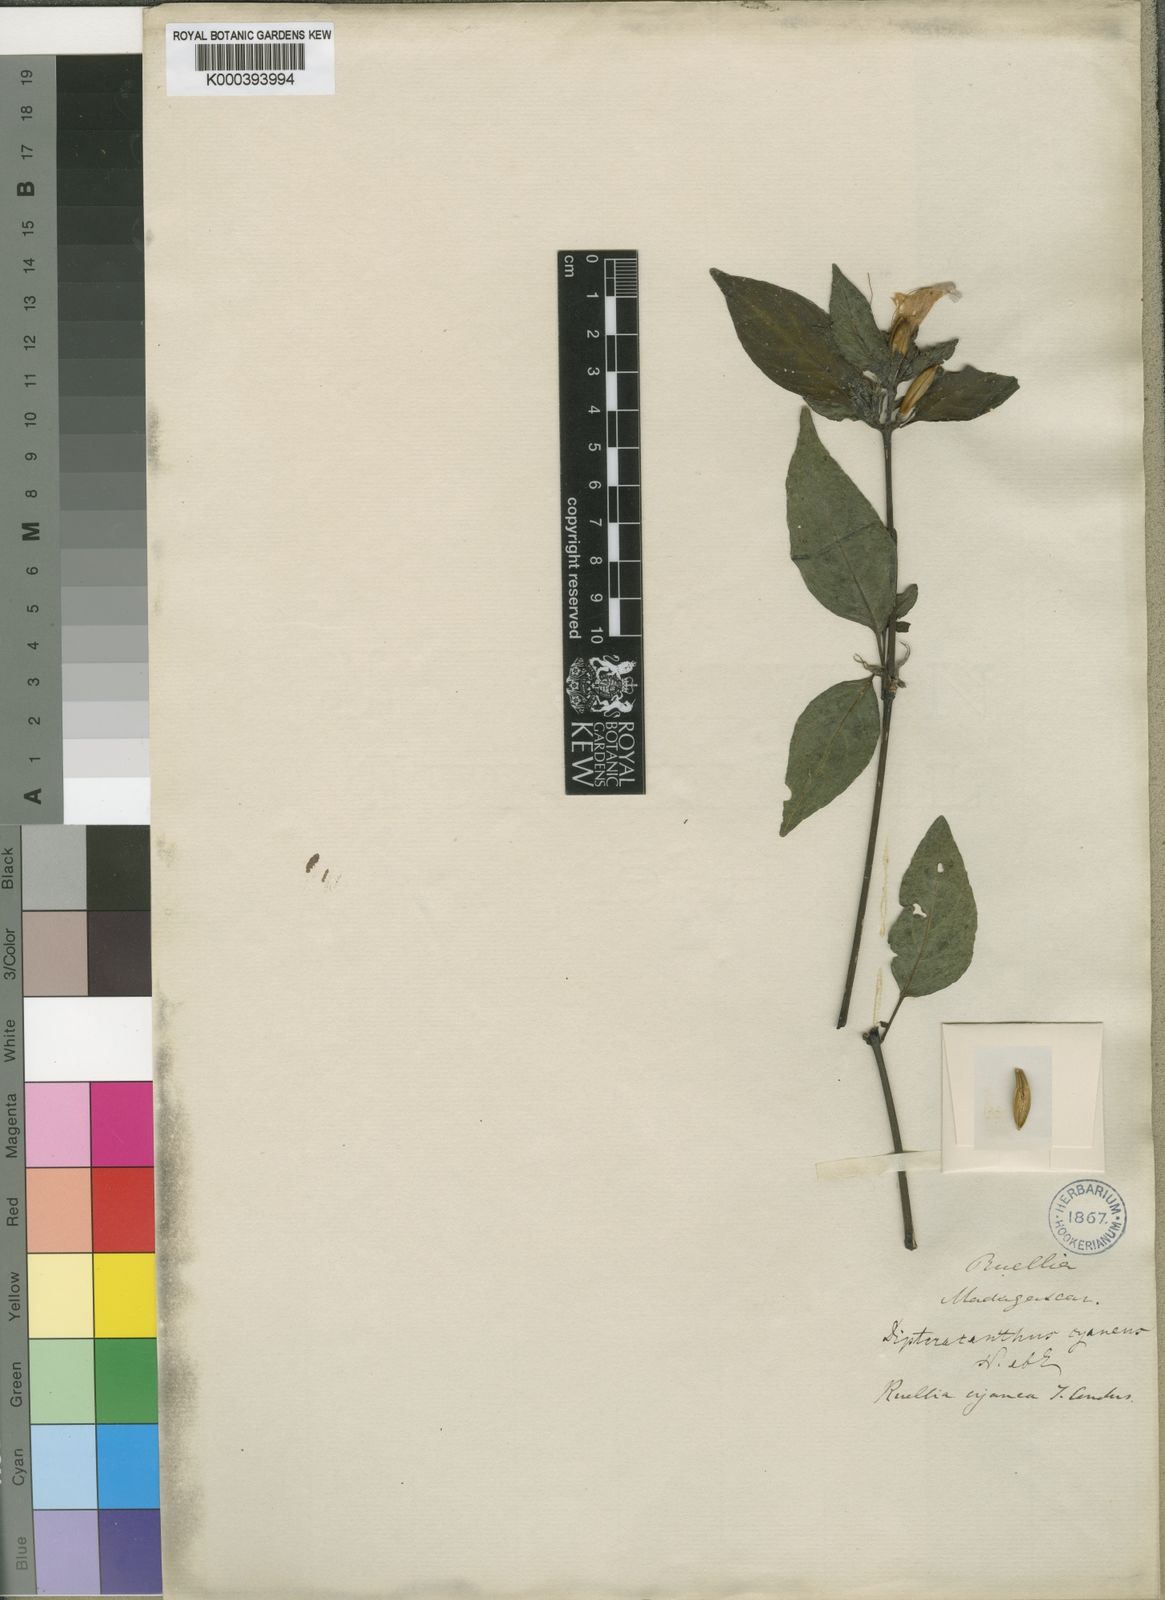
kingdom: Plantae
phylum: Tracheophyta
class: Magnoliopsida
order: Lamiales
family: Acanthaceae
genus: Ruellia
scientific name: Ruellia
